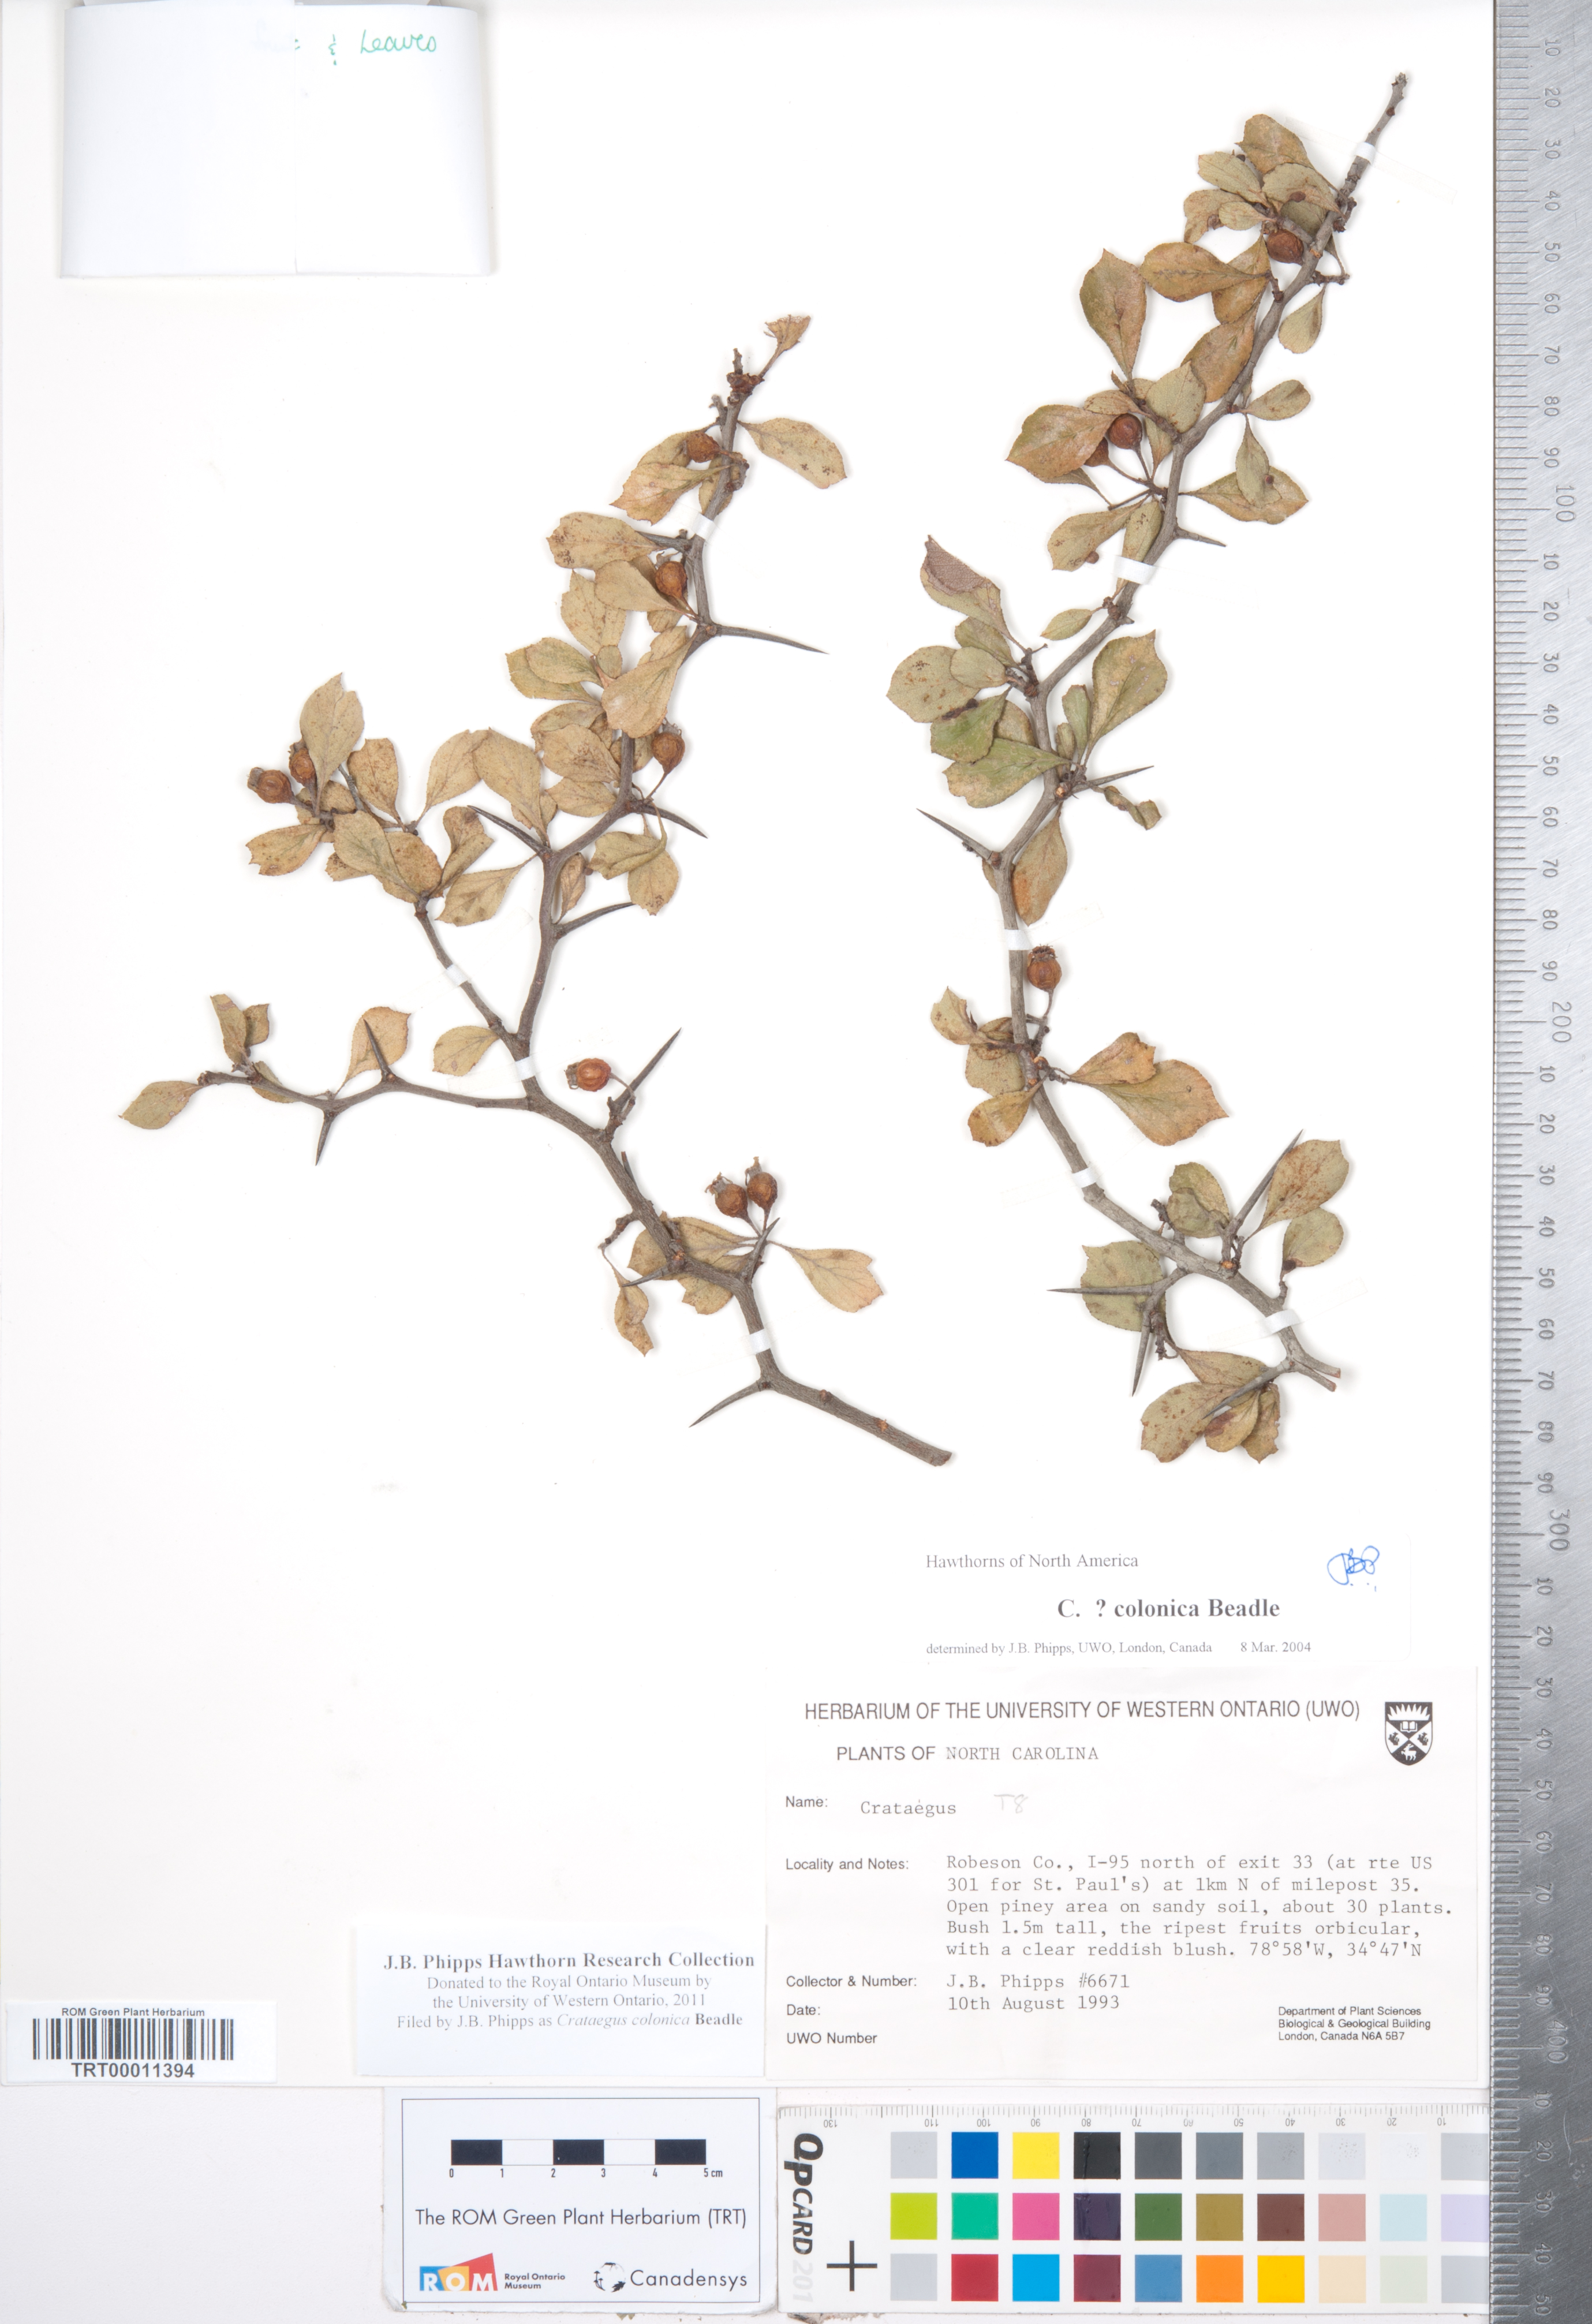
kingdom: Plantae
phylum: Tracheophyta
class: Magnoliopsida
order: Rosales
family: Rosaceae
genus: Crataegus
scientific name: Crataegus
